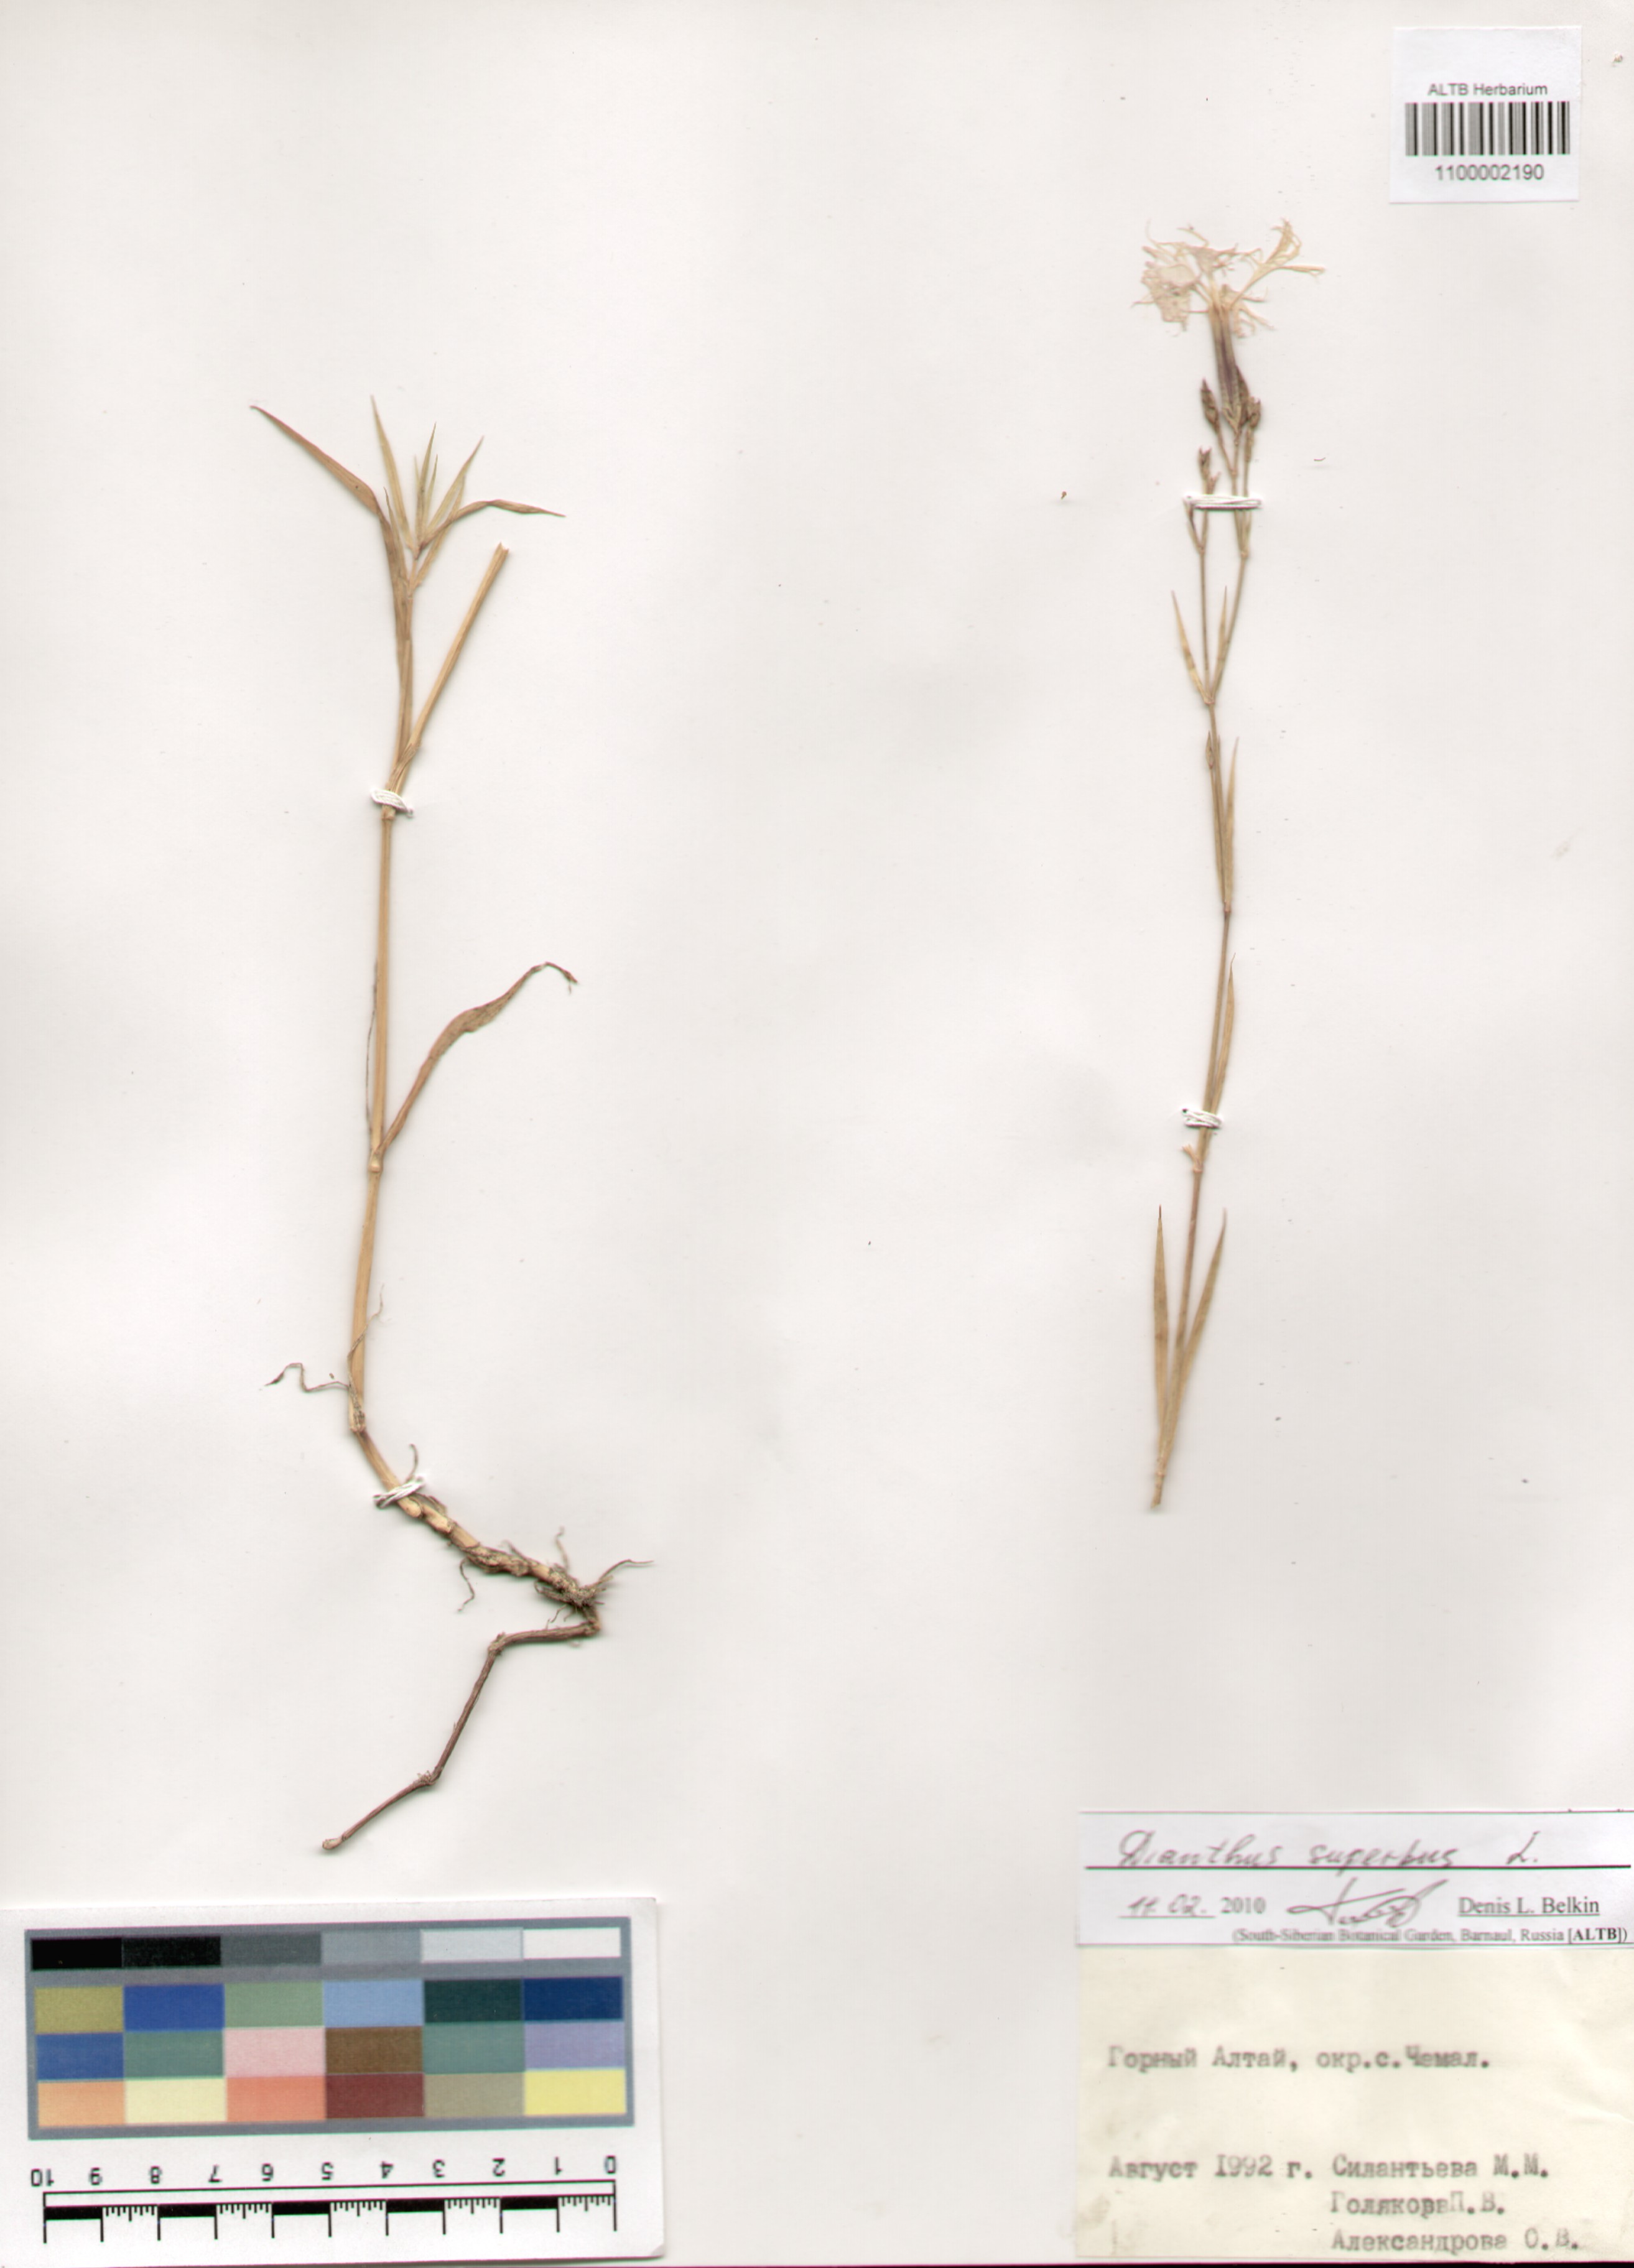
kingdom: Plantae
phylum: Tracheophyta
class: Magnoliopsida
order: Caryophyllales
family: Caryophyllaceae
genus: Dianthus
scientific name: Dianthus superbus
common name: Fringed pink
